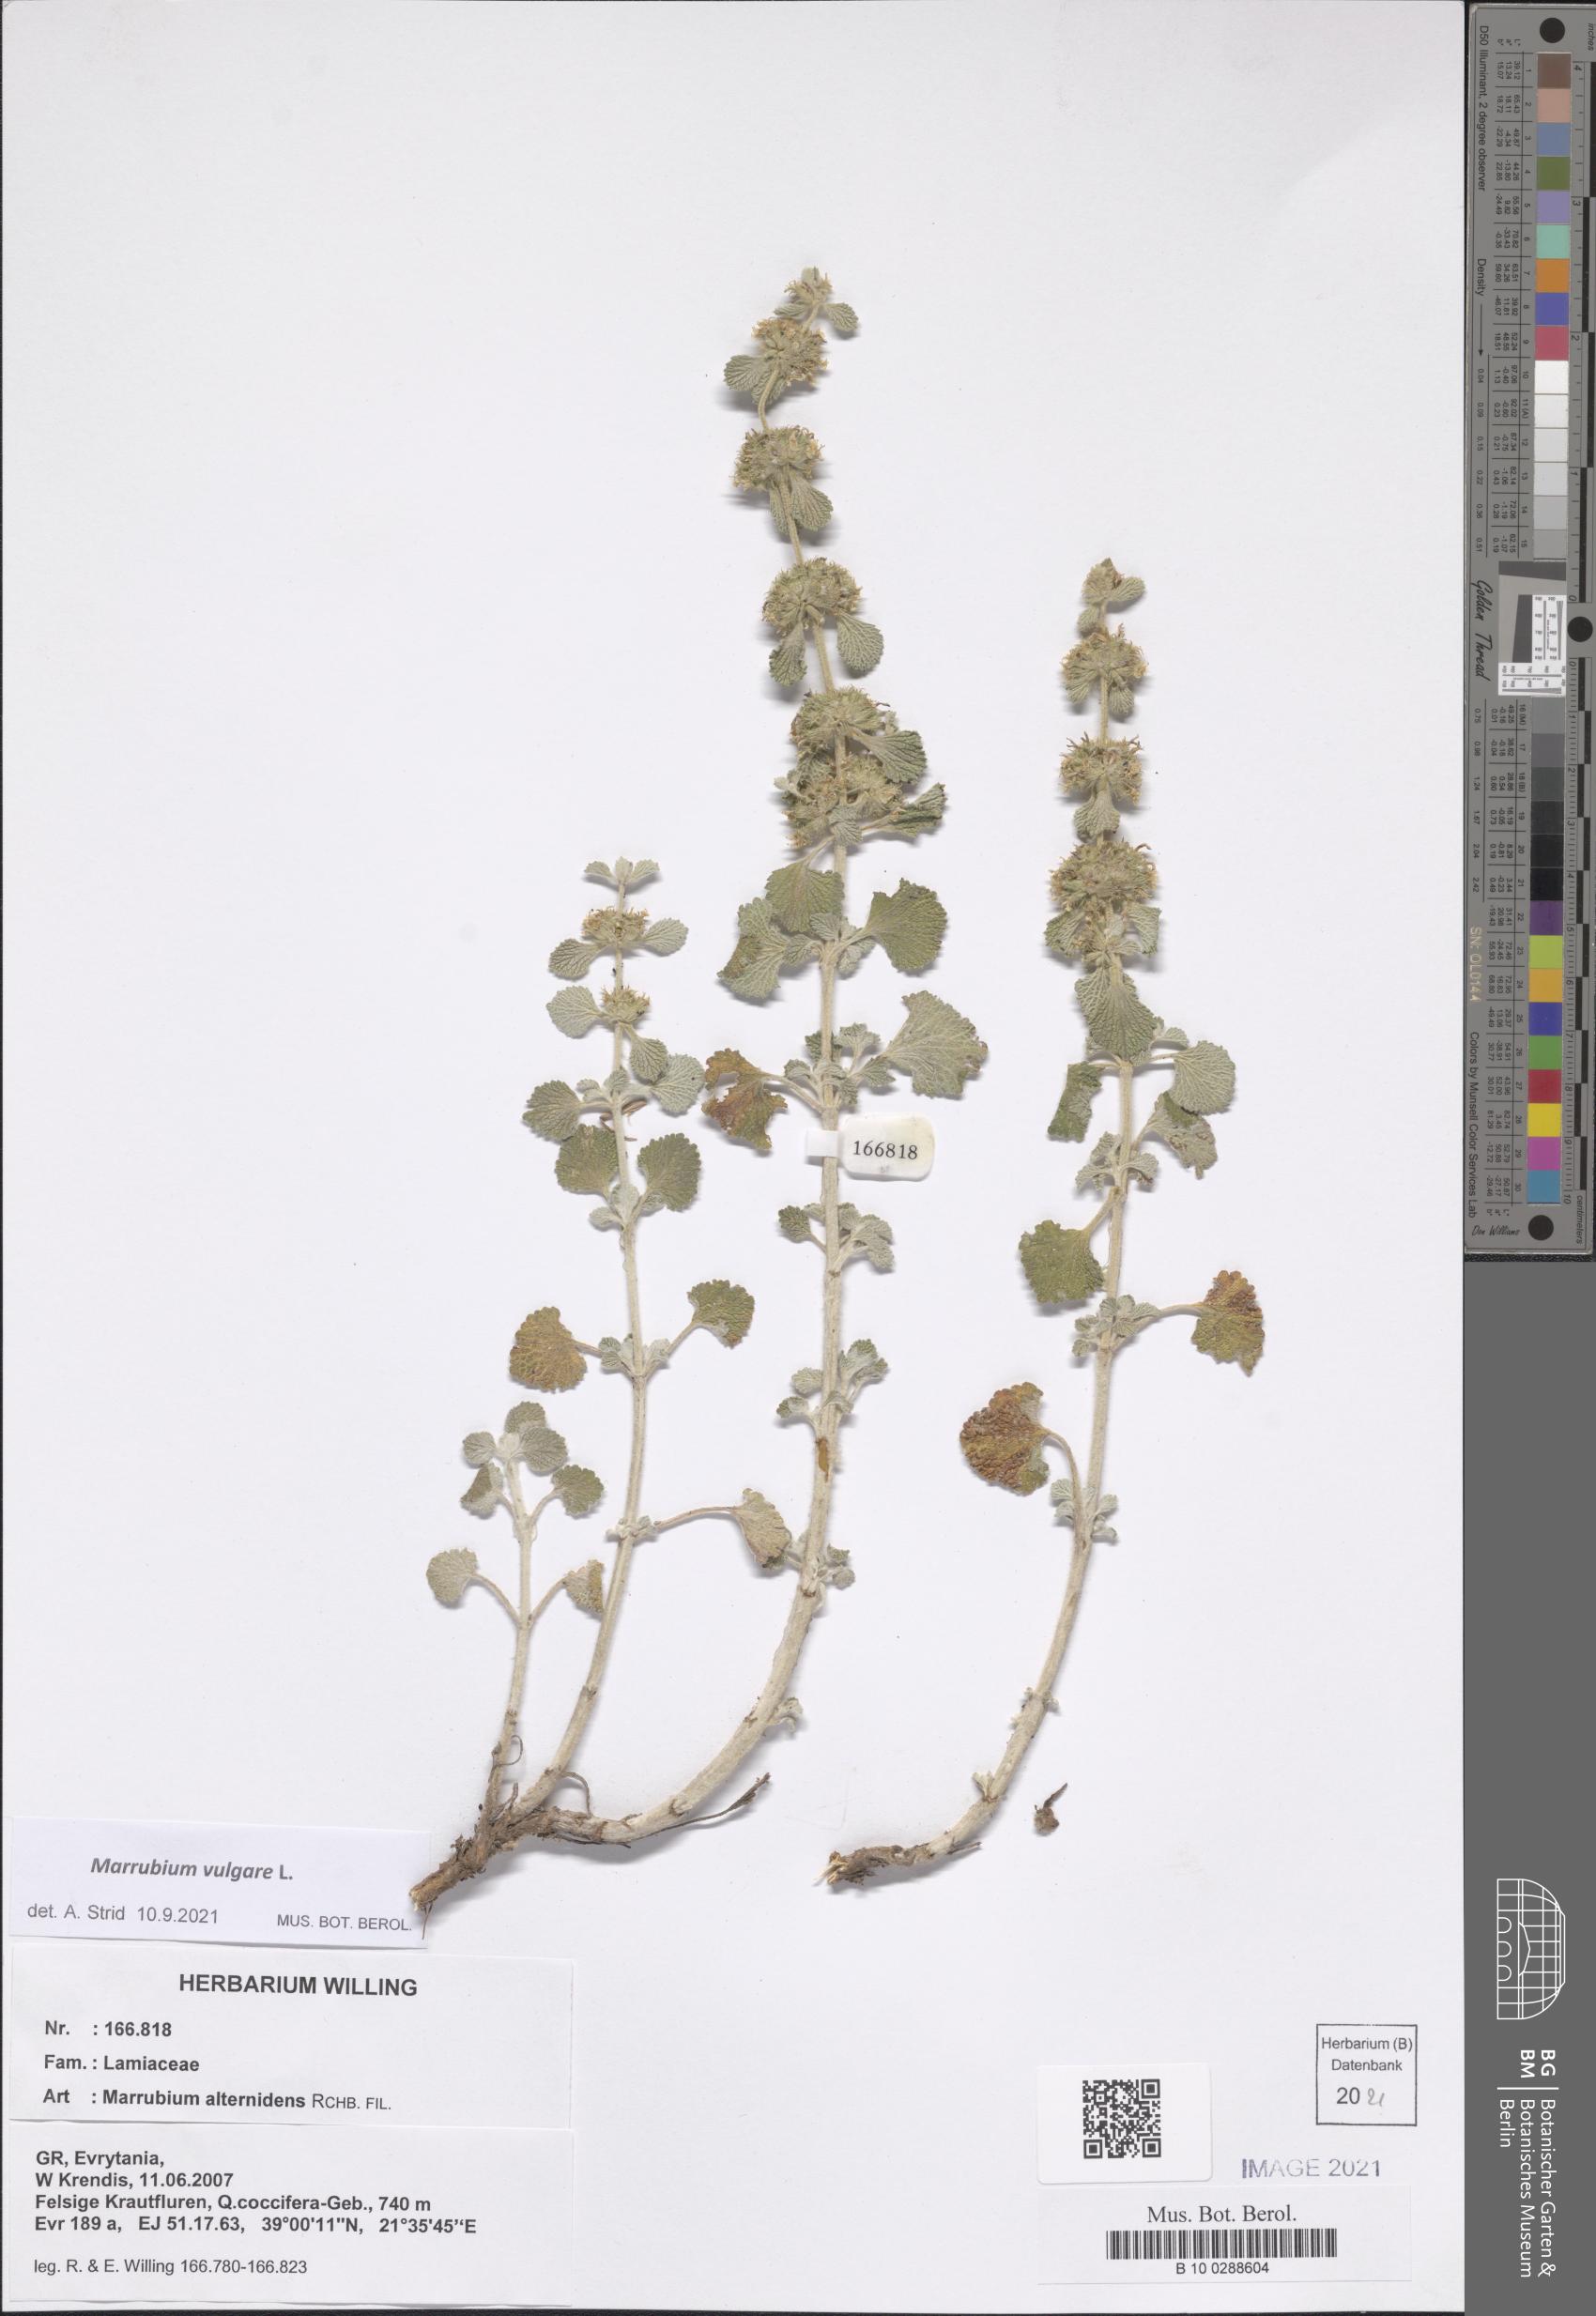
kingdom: Plantae
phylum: Tracheophyta
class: Magnoliopsida
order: Lamiales
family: Lamiaceae
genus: Marrubium
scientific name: Marrubium vulgare
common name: Horehound
